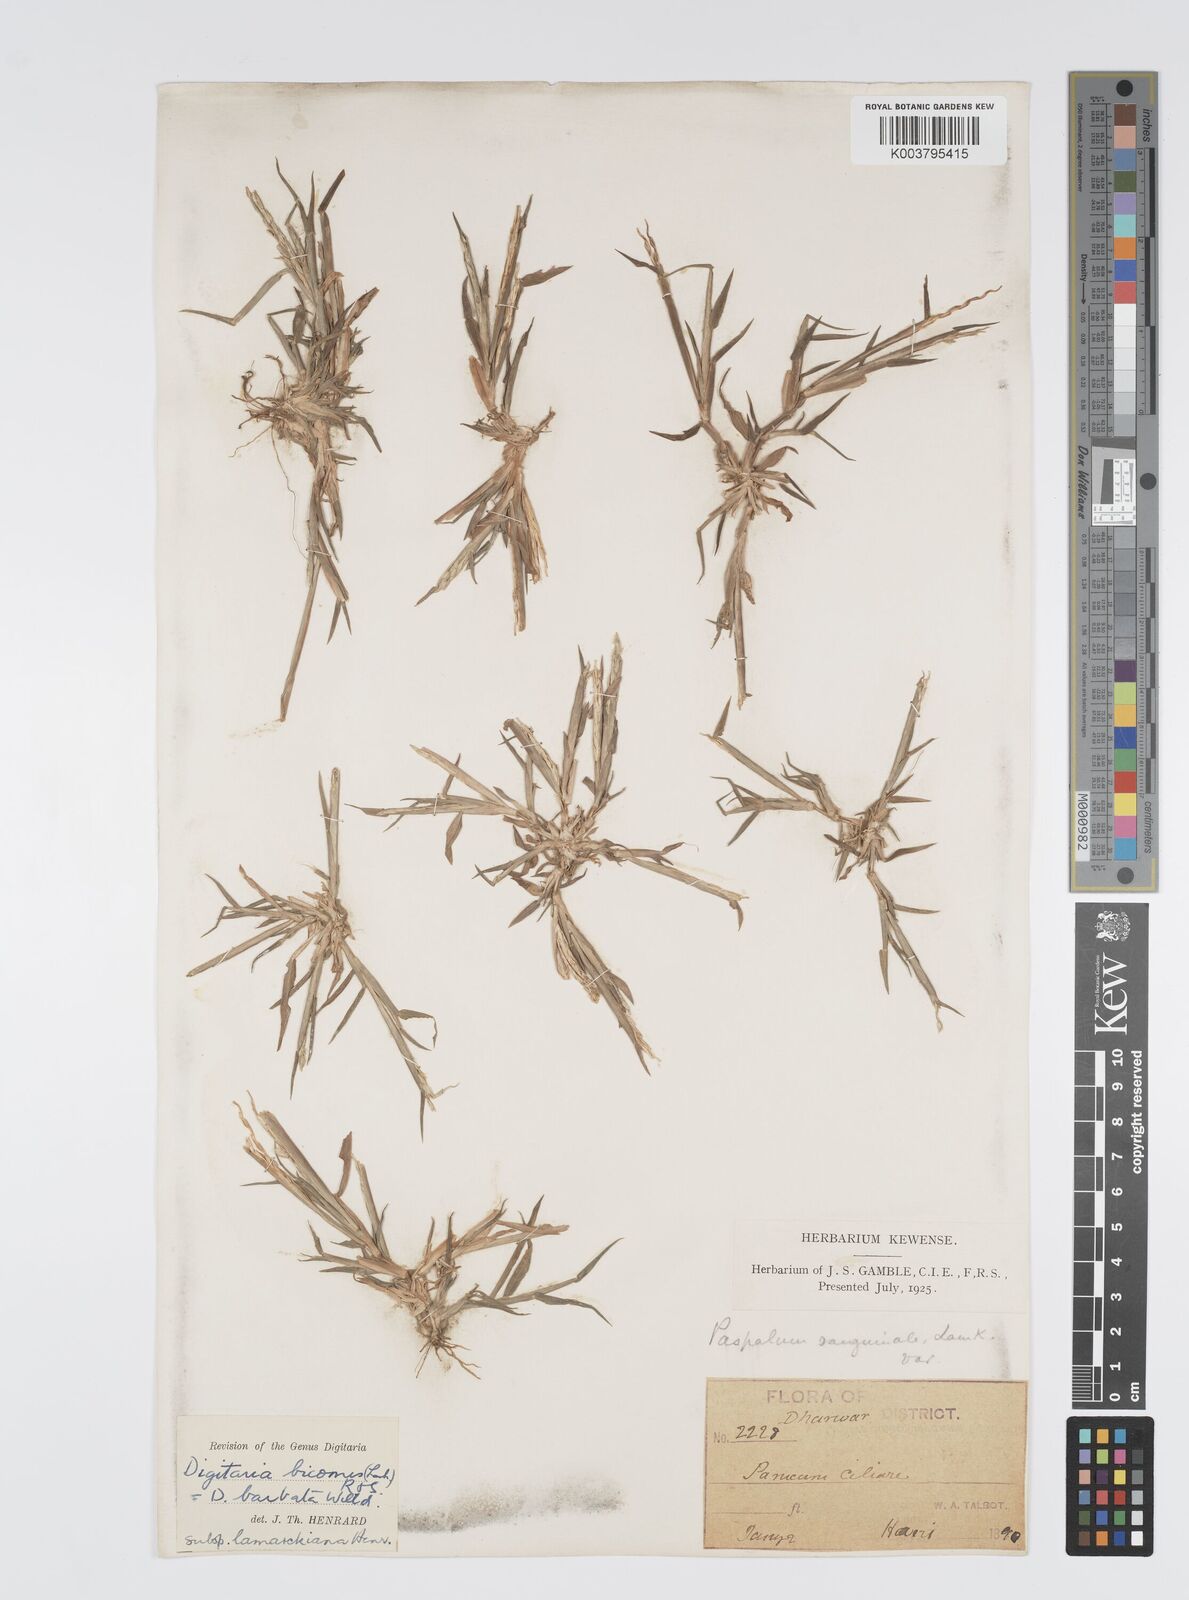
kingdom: Plantae
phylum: Tracheophyta
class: Liliopsida
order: Poales
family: Poaceae
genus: Digitaria
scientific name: Digitaria bicornis
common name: Asian crabgrass
